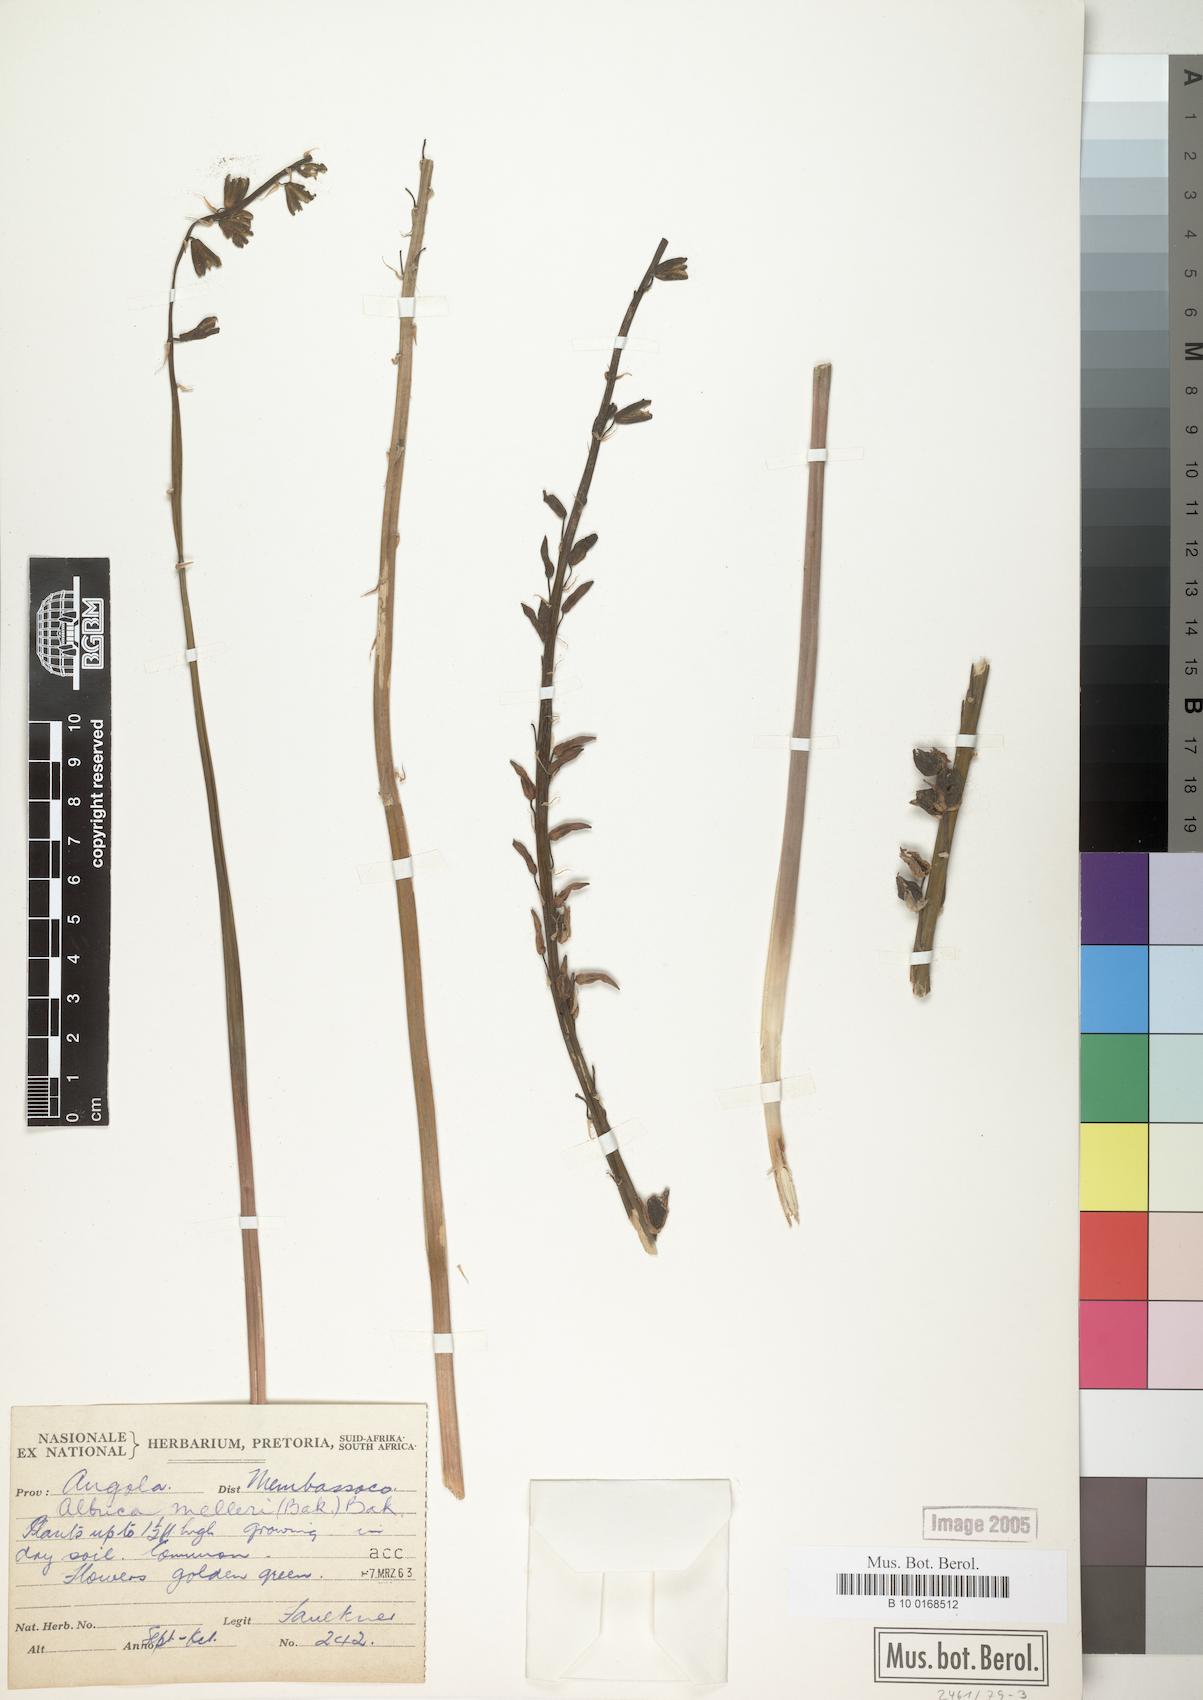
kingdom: Plantae
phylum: Tracheophyta
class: Liliopsida
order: Asparagales
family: Asparagaceae
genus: Albuca
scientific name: Albuca abyssinica
